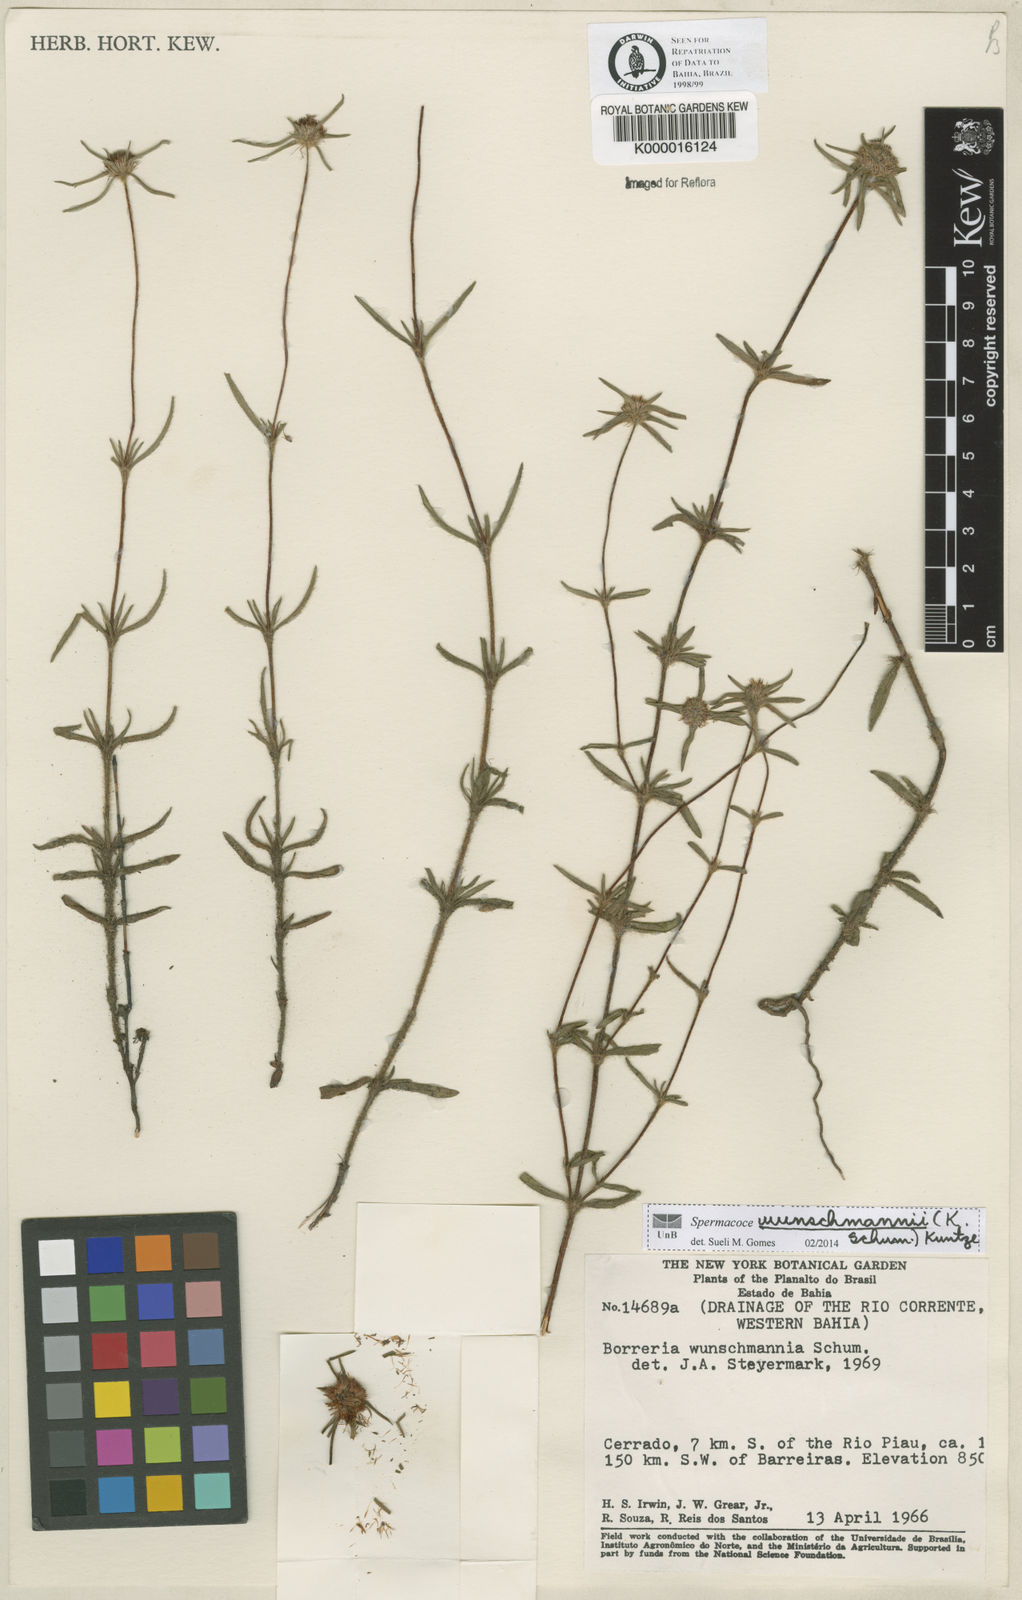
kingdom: Plantae
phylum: Tracheophyta
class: Magnoliopsida
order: Gentianales
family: Rubiaceae
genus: Spermacoce
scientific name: Spermacoce wunschmannii
